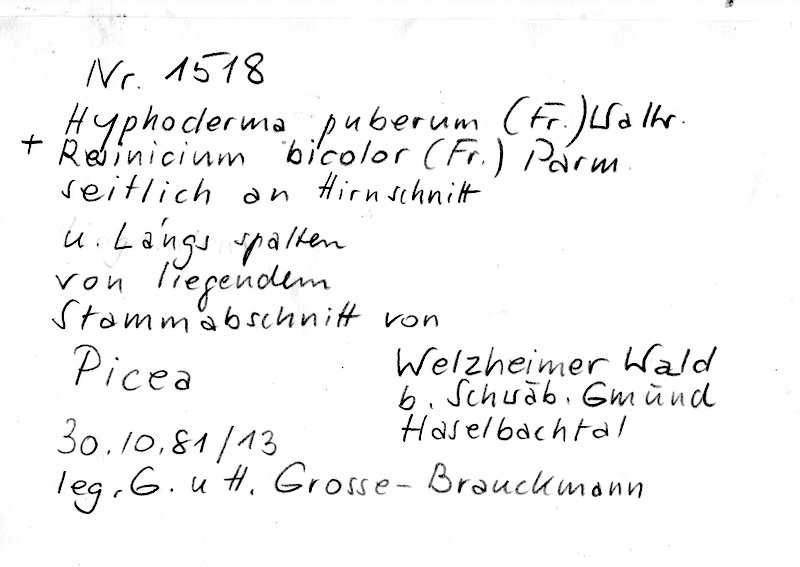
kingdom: Fungi
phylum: Basidiomycota
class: Agaricomycetes
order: Hymenochaetales
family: Rickenellaceae
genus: Resinicium
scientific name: Resinicium bicolor
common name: Hallowed crust
